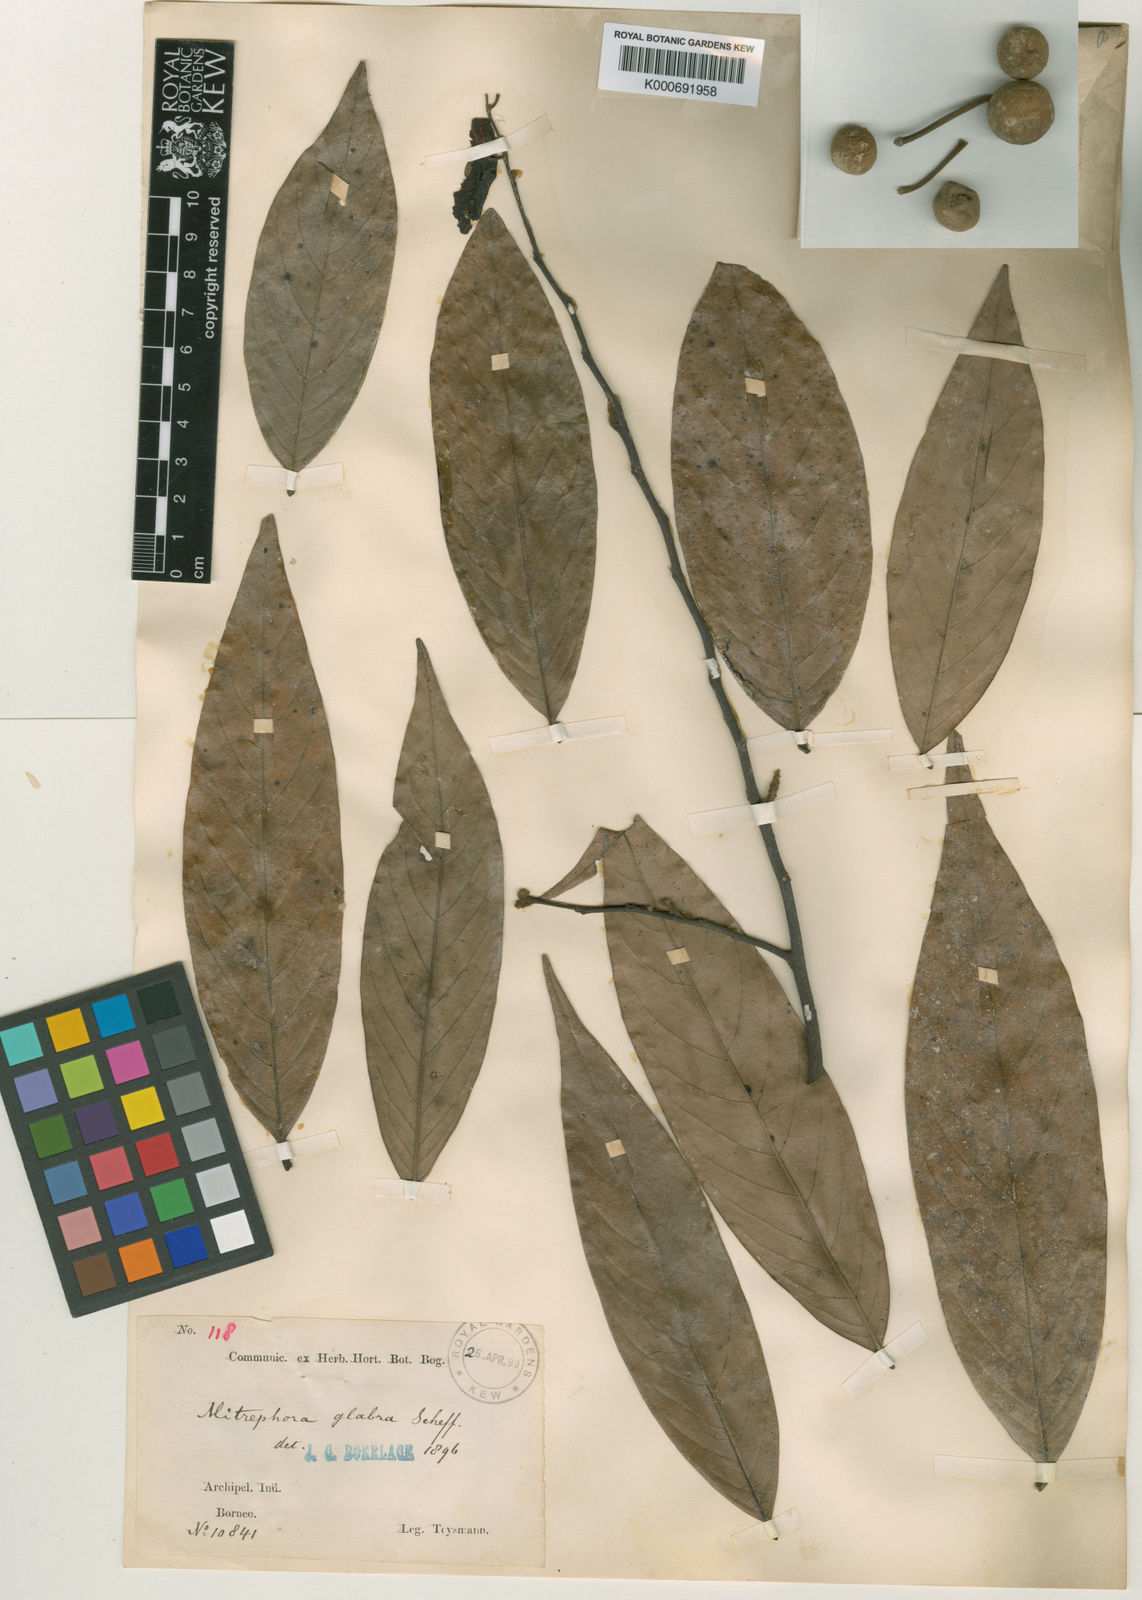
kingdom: Plantae
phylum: Tracheophyta
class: Magnoliopsida
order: Magnoliales
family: Annonaceae
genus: Mitrephora
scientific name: Mitrephora glabra
